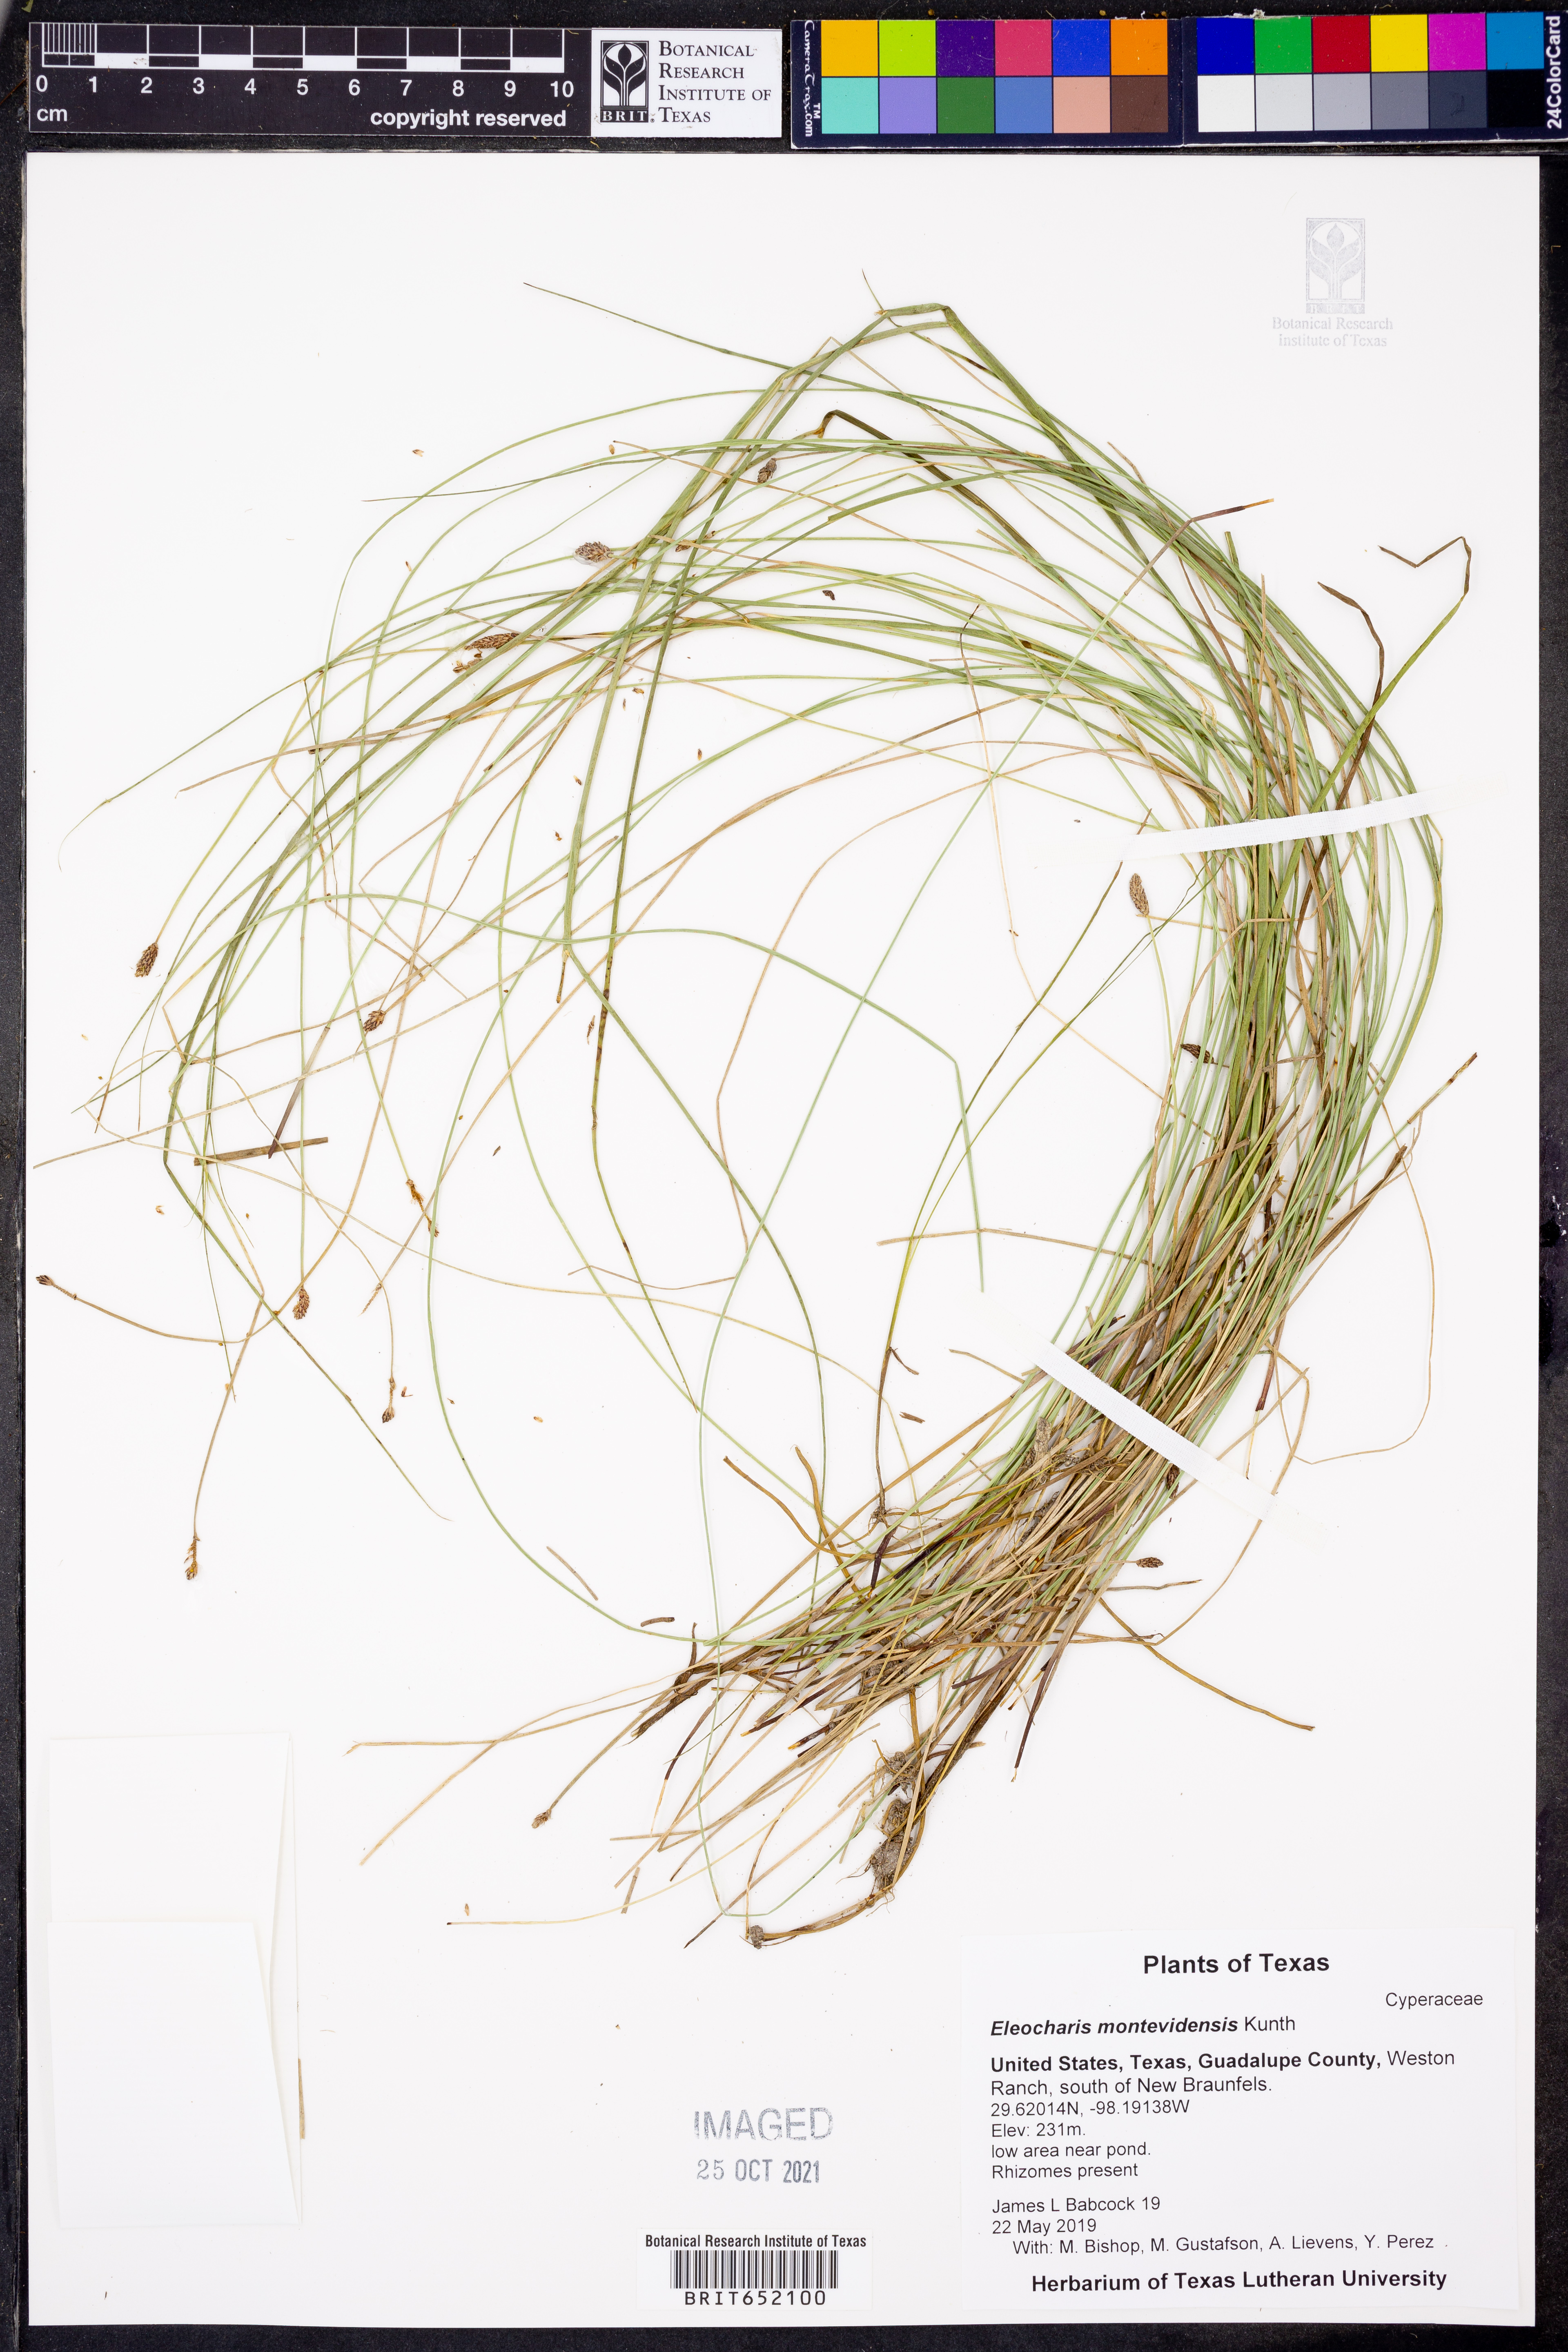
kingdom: Plantae
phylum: Tracheophyta
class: Liliopsida
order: Poales
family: Cyperaceae
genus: Eleocharis
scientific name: Eleocharis montevidensis
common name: Sand spike-rush
